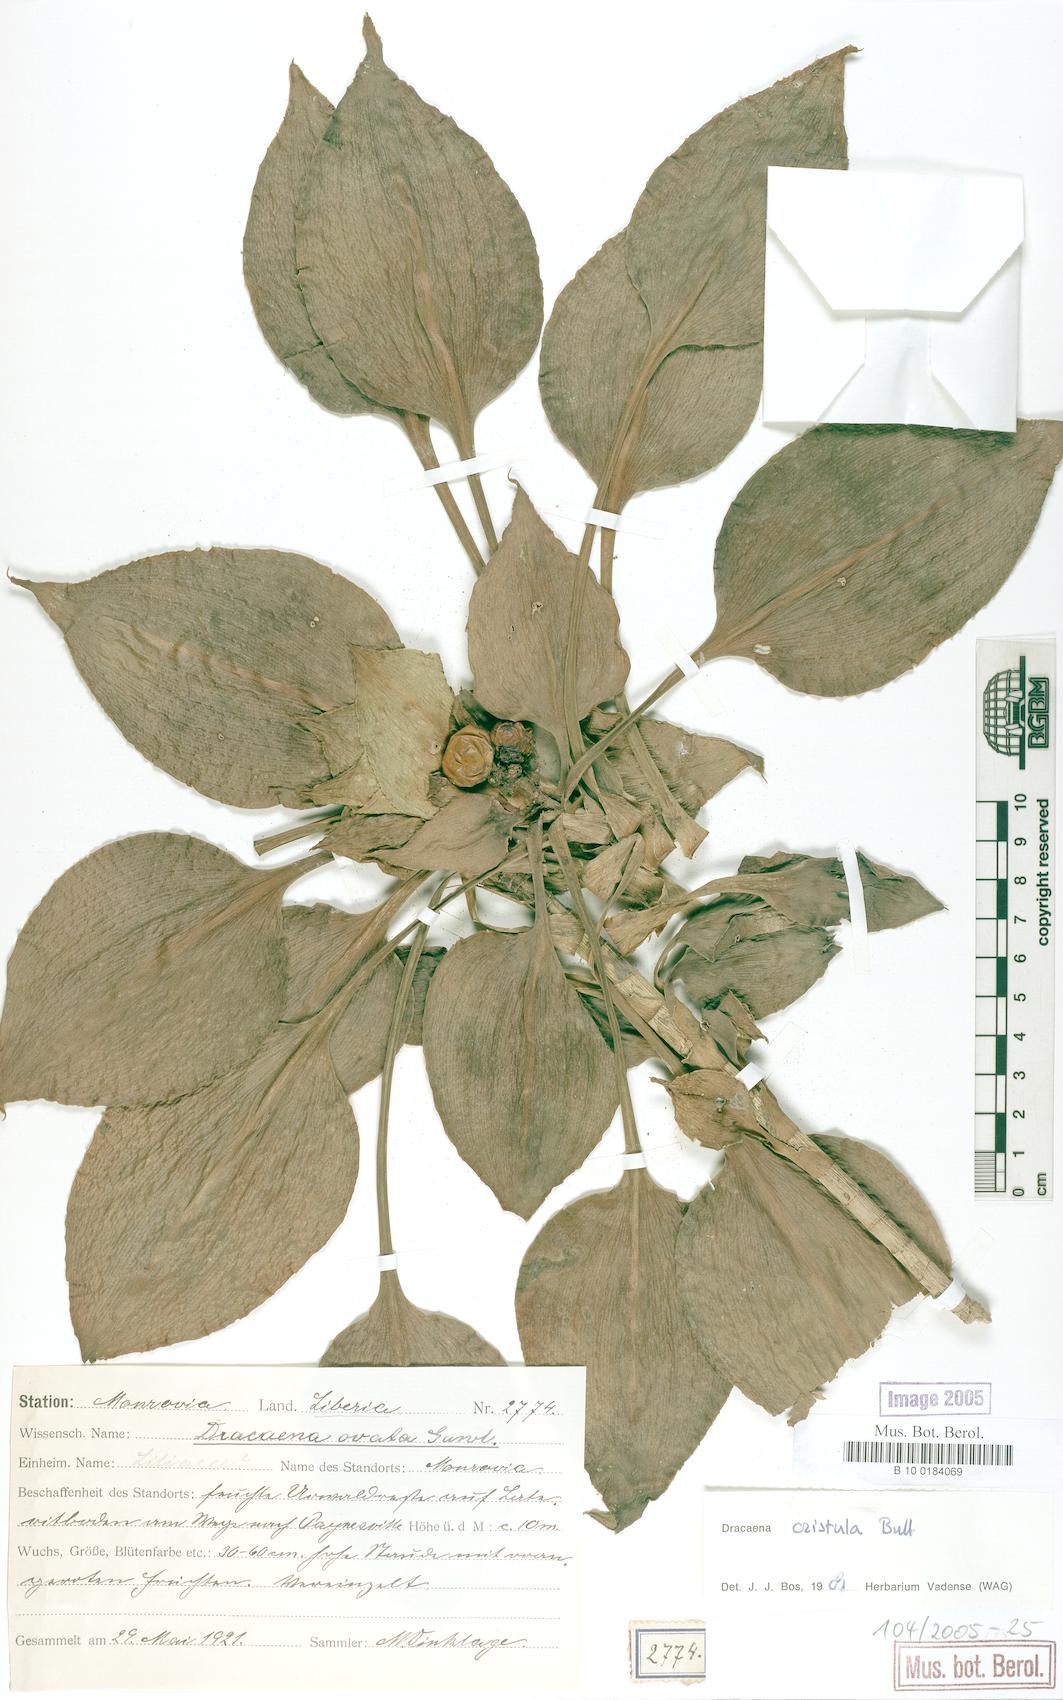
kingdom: Plantae
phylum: Tracheophyta
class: Liliopsida
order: Asparagales
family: Asparagaceae
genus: Dracaena
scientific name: Dracaena cristula
